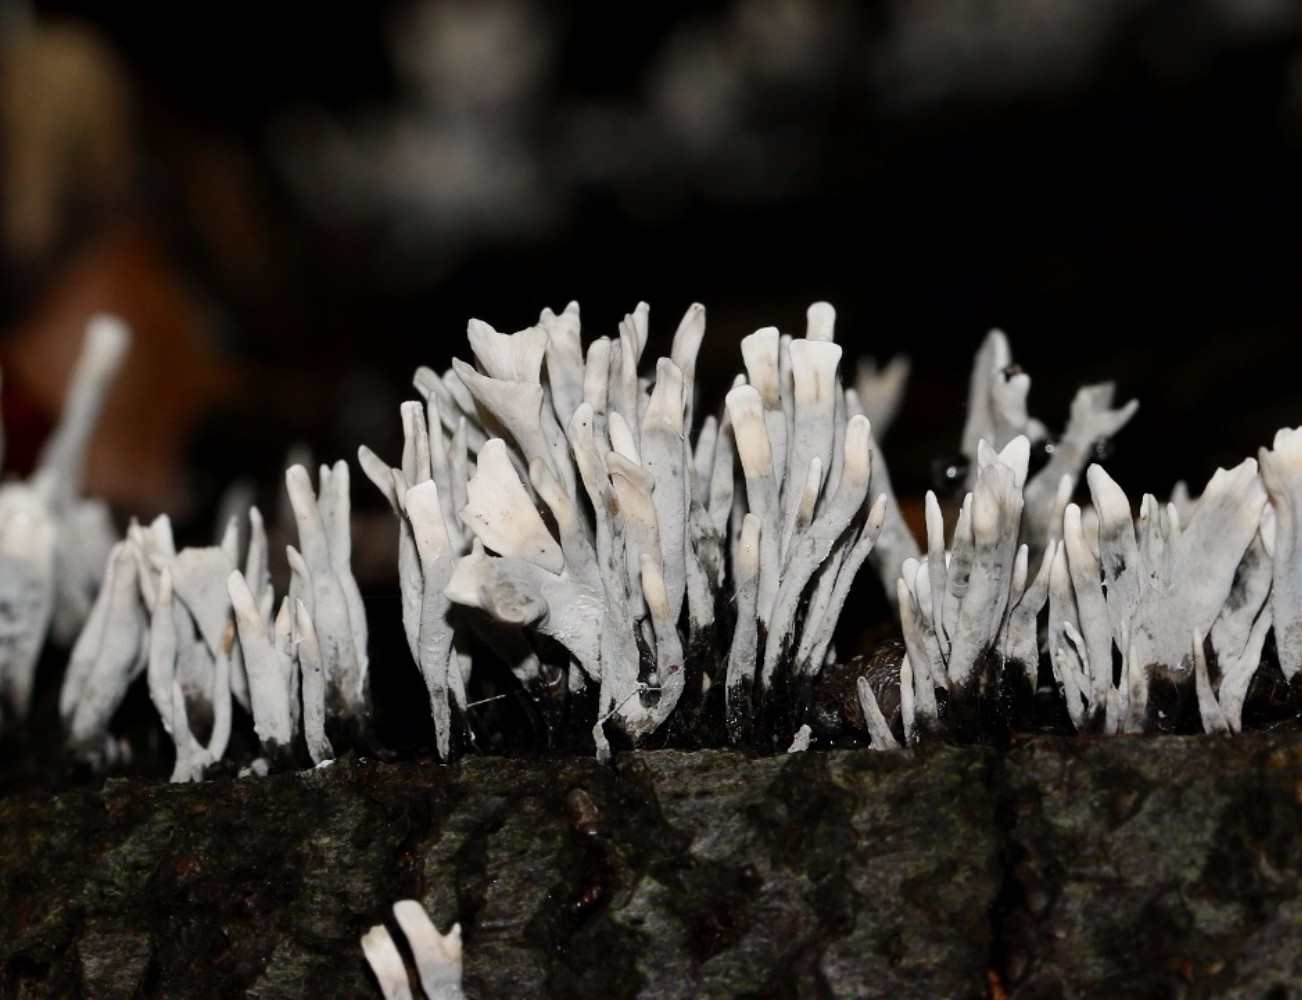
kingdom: Fungi
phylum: Ascomycota
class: Sordariomycetes
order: Xylariales
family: Xylariaceae
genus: Xylaria
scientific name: Xylaria hypoxylon
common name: grenet stødsvamp
